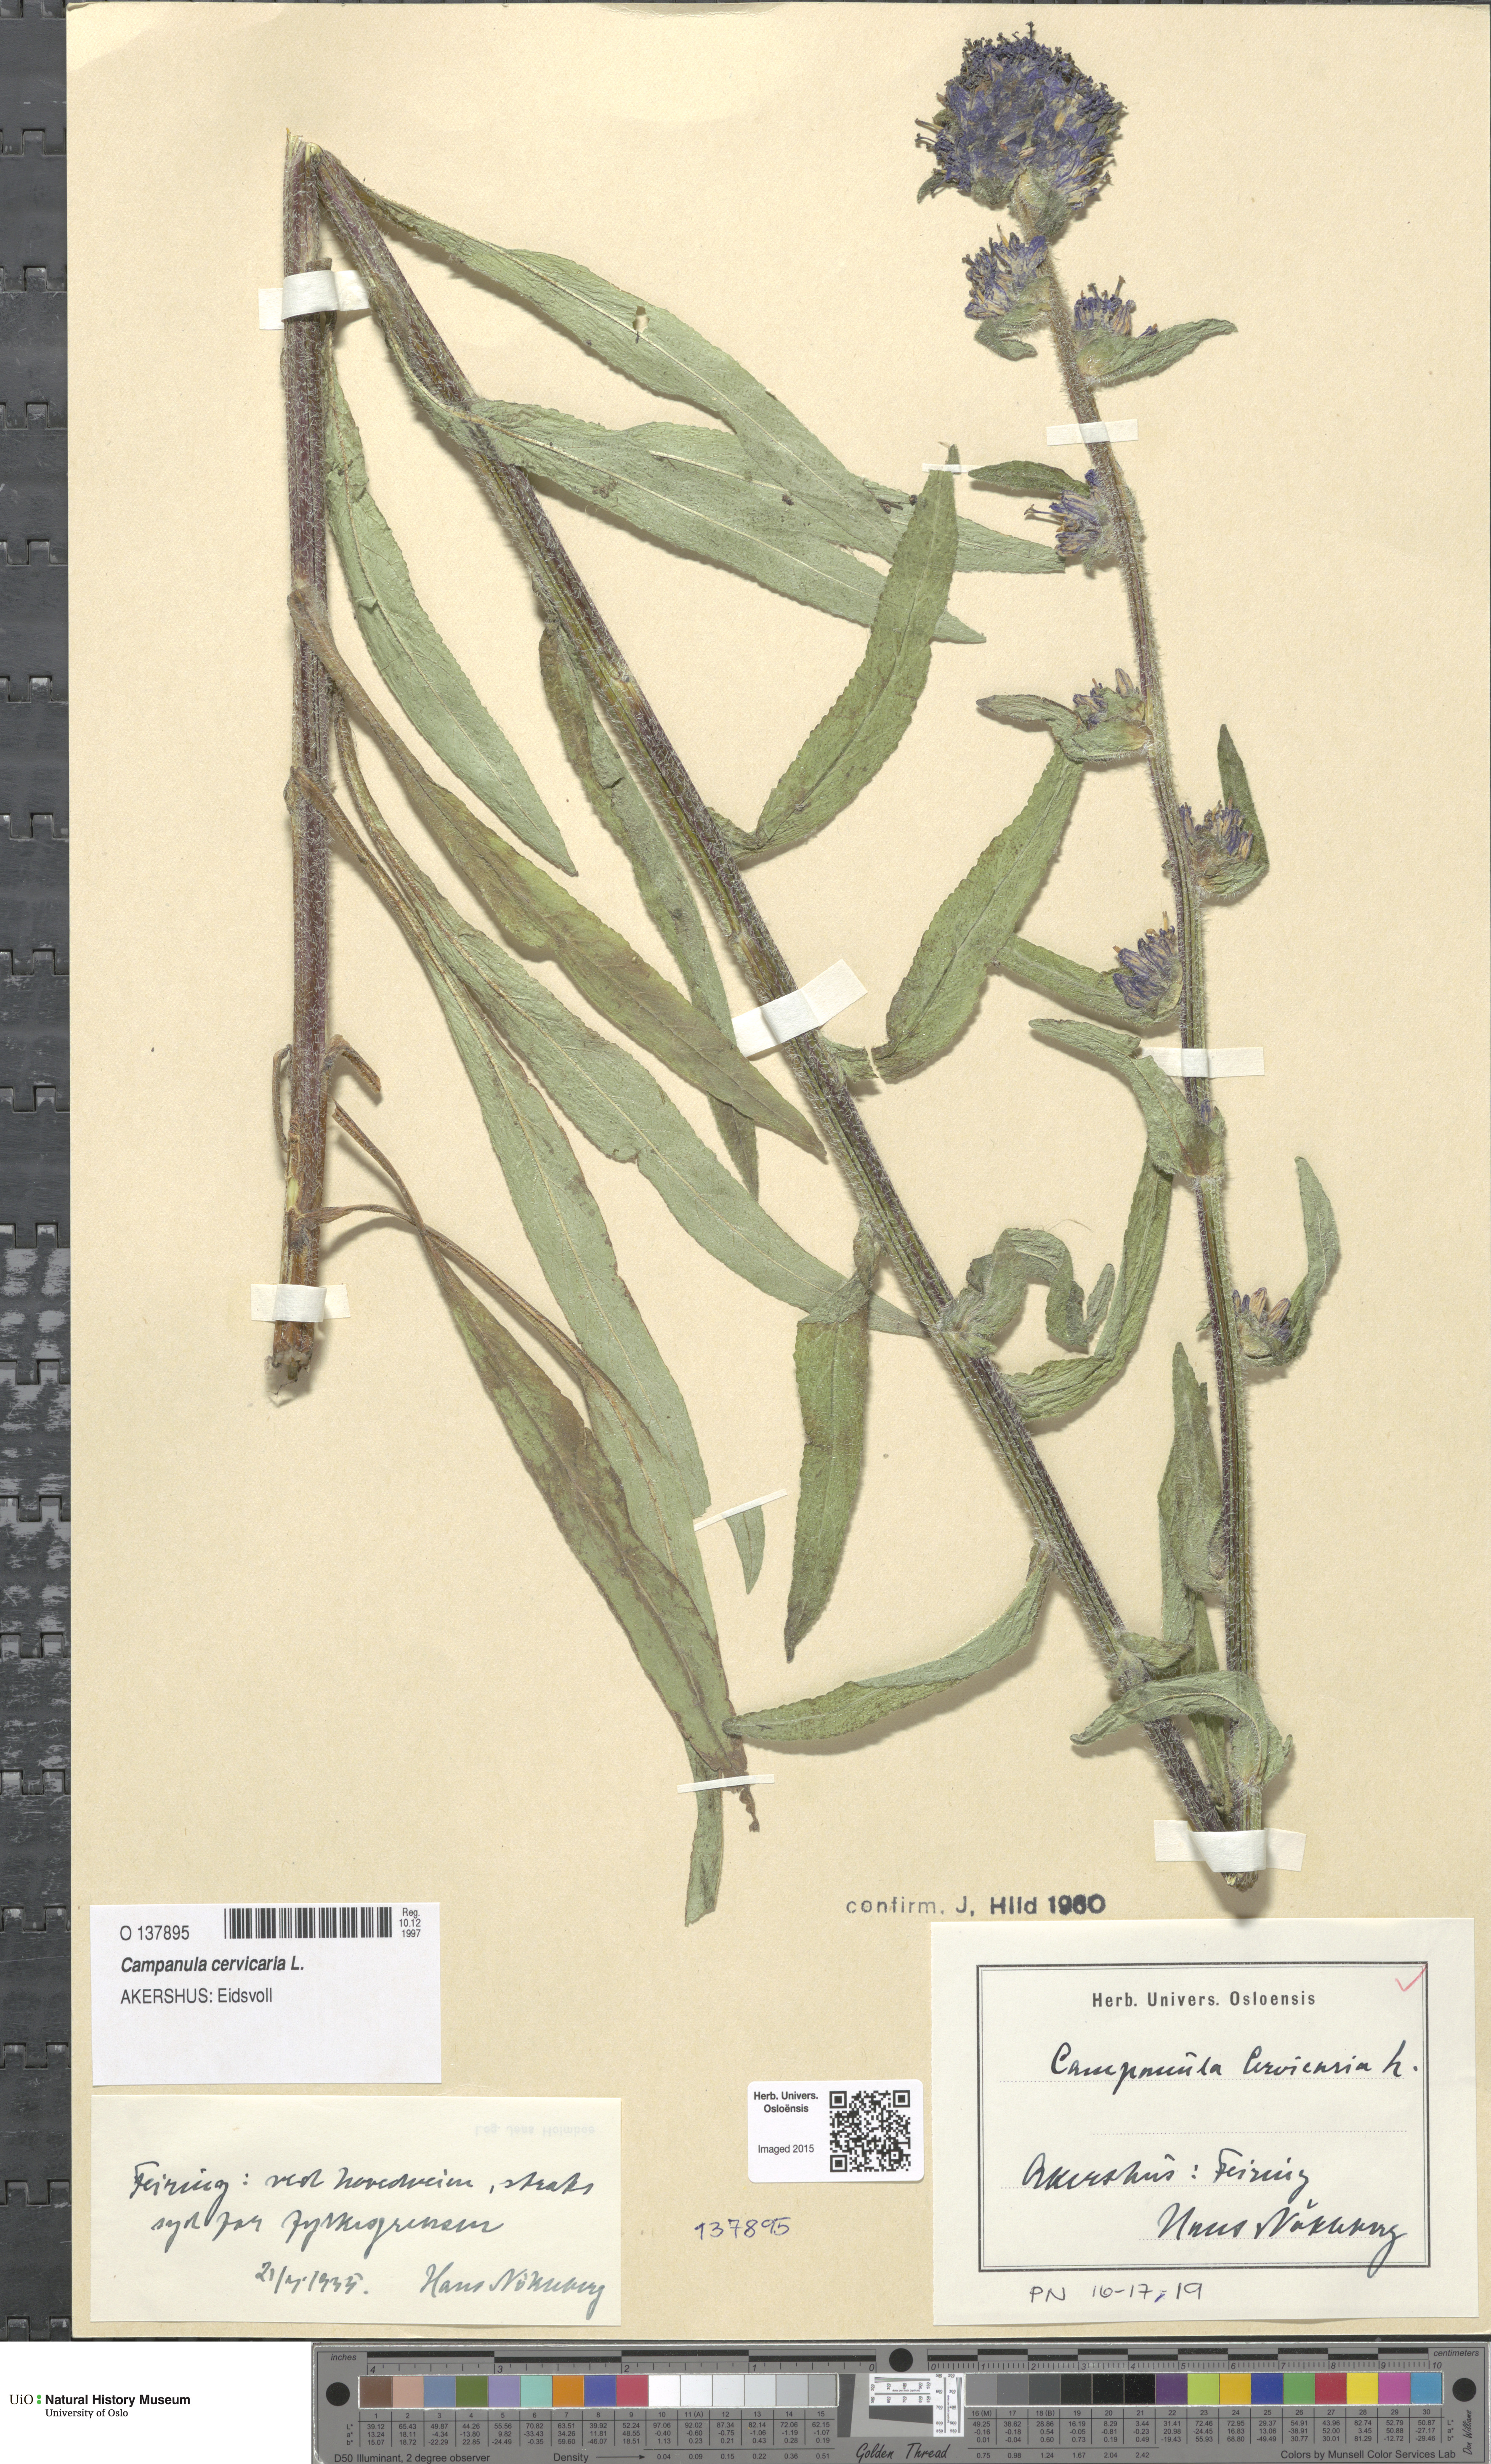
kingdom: Plantae
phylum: Tracheophyta
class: Magnoliopsida
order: Asterales
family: Campanulaceae
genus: Campanula
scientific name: Campanula cervicaria
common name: Bristly bellflower
